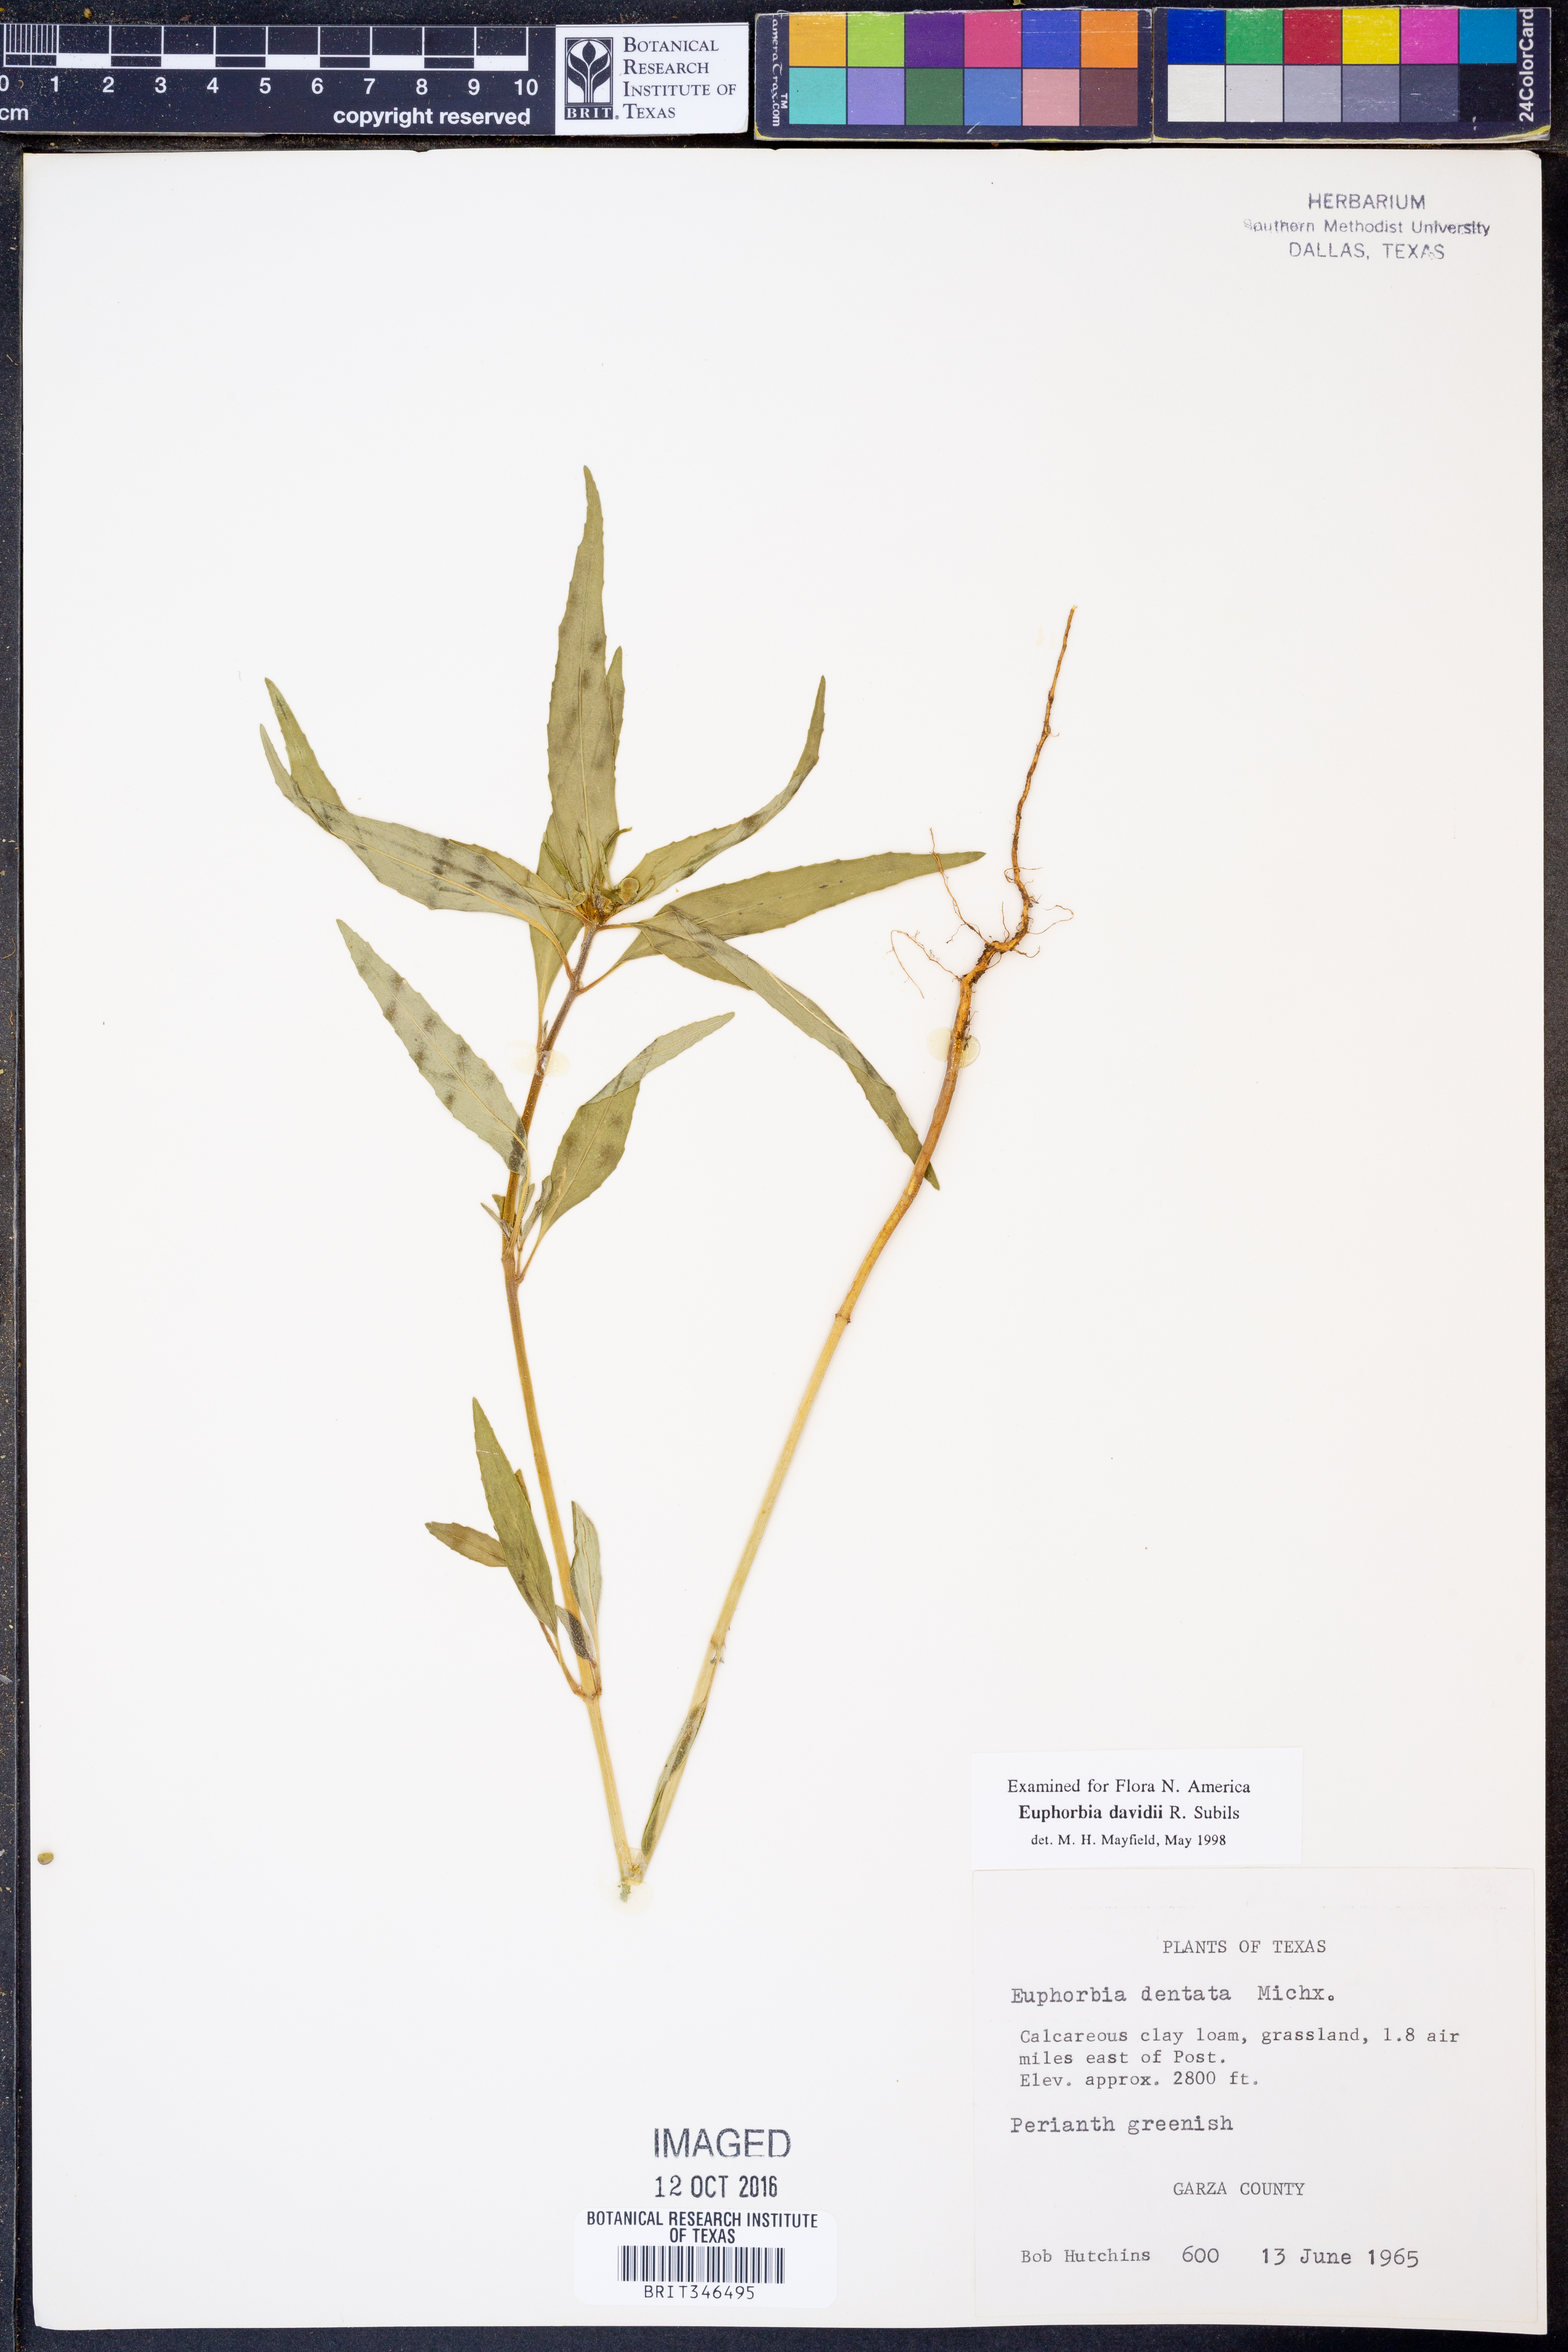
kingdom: Plantae
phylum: Tracheophyta
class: Magnoliopsida
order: Malpighiales
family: Euphorbiaceae
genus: Euphorbia
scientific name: Euphorbia davidii
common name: David's spurge
